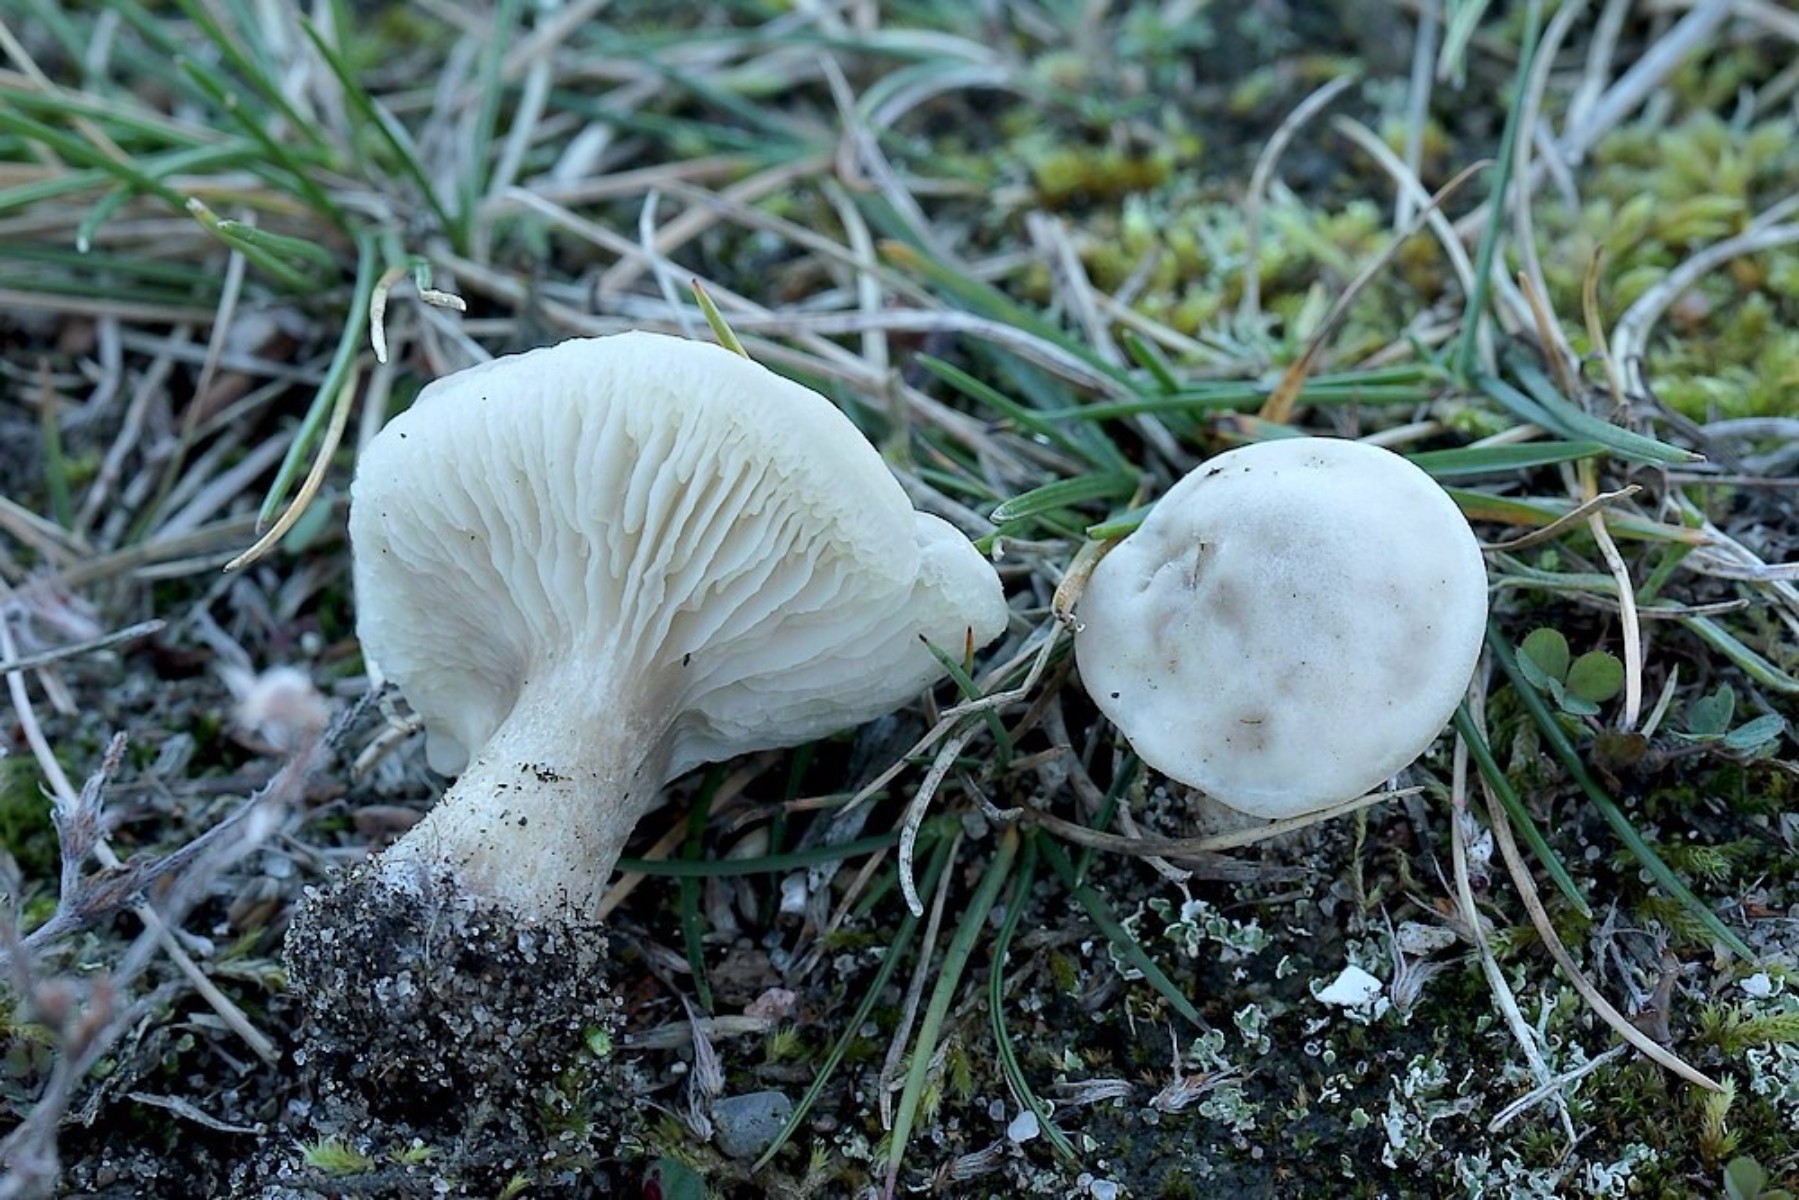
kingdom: Fungi
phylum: Basidiomycota
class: Agaricomycetes
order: Agaricales
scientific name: Agaricales
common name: champignonordenen
